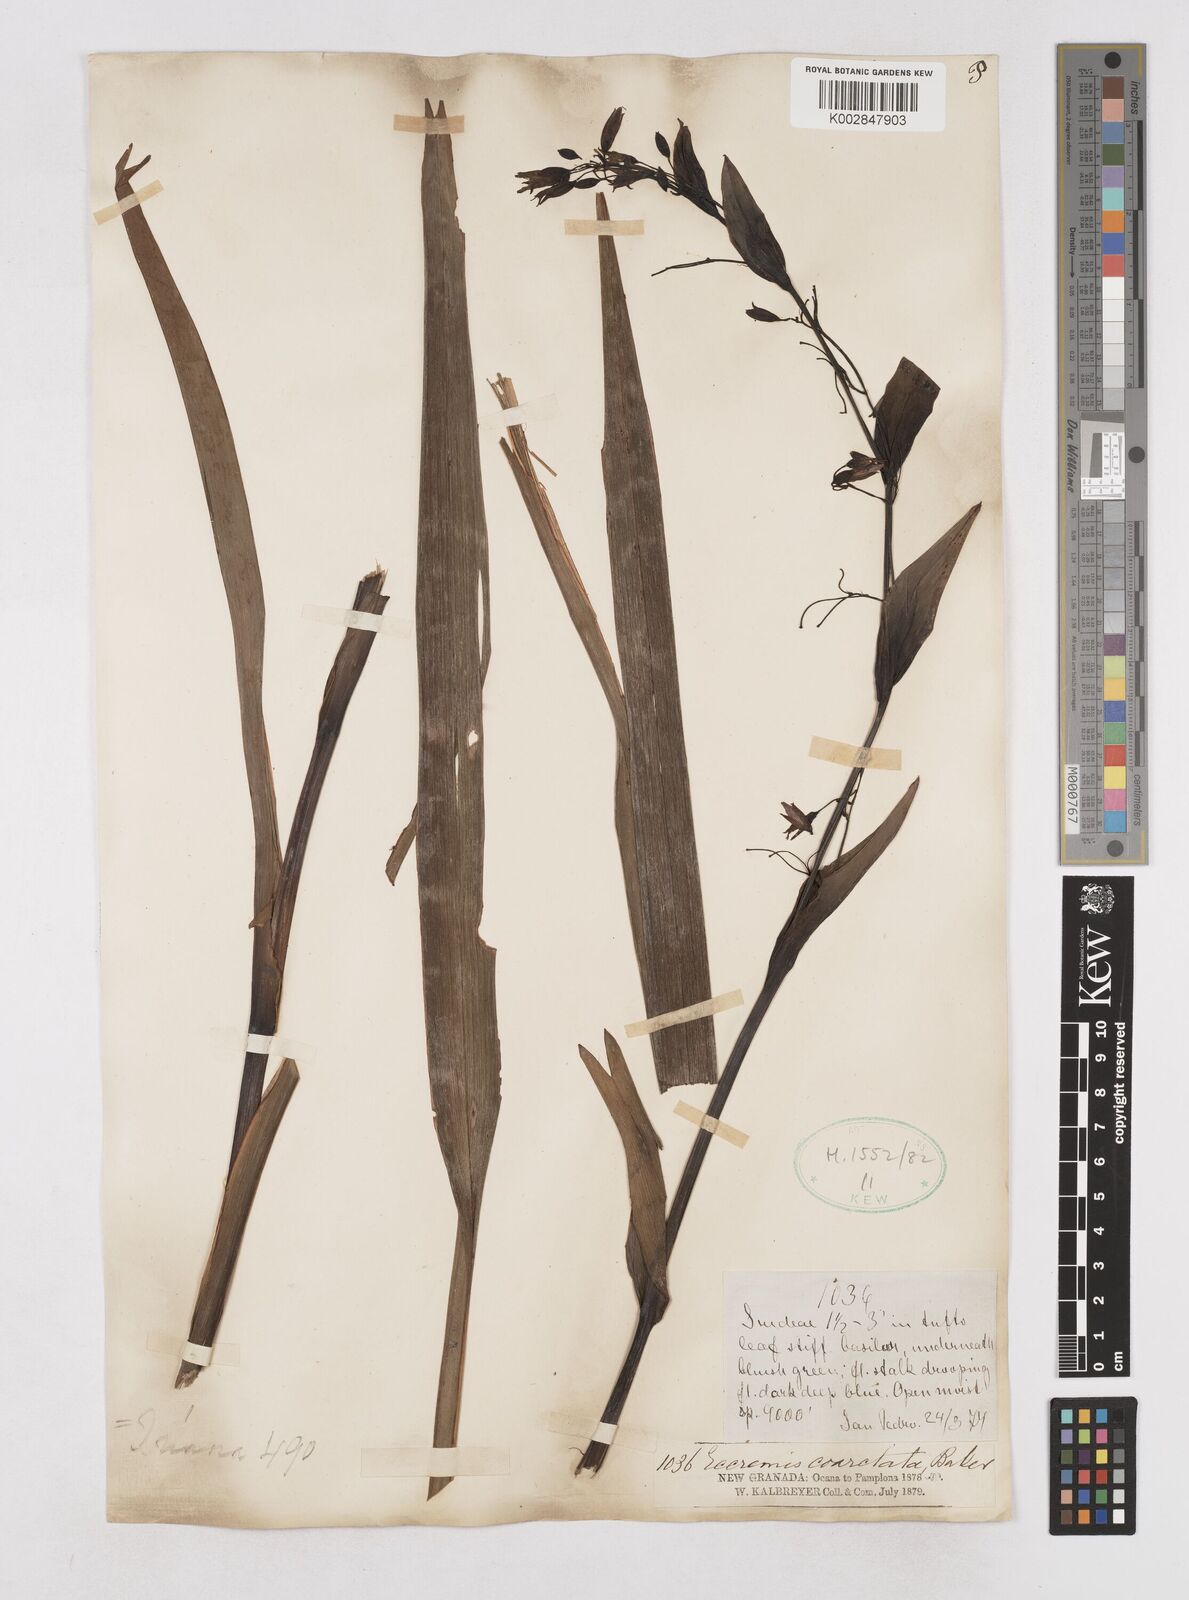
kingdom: Plantae
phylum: Tracheophyta
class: Liliopsida
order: Asparagales
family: Asphodelaceae
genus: Excremis
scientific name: Excremis coarctata
